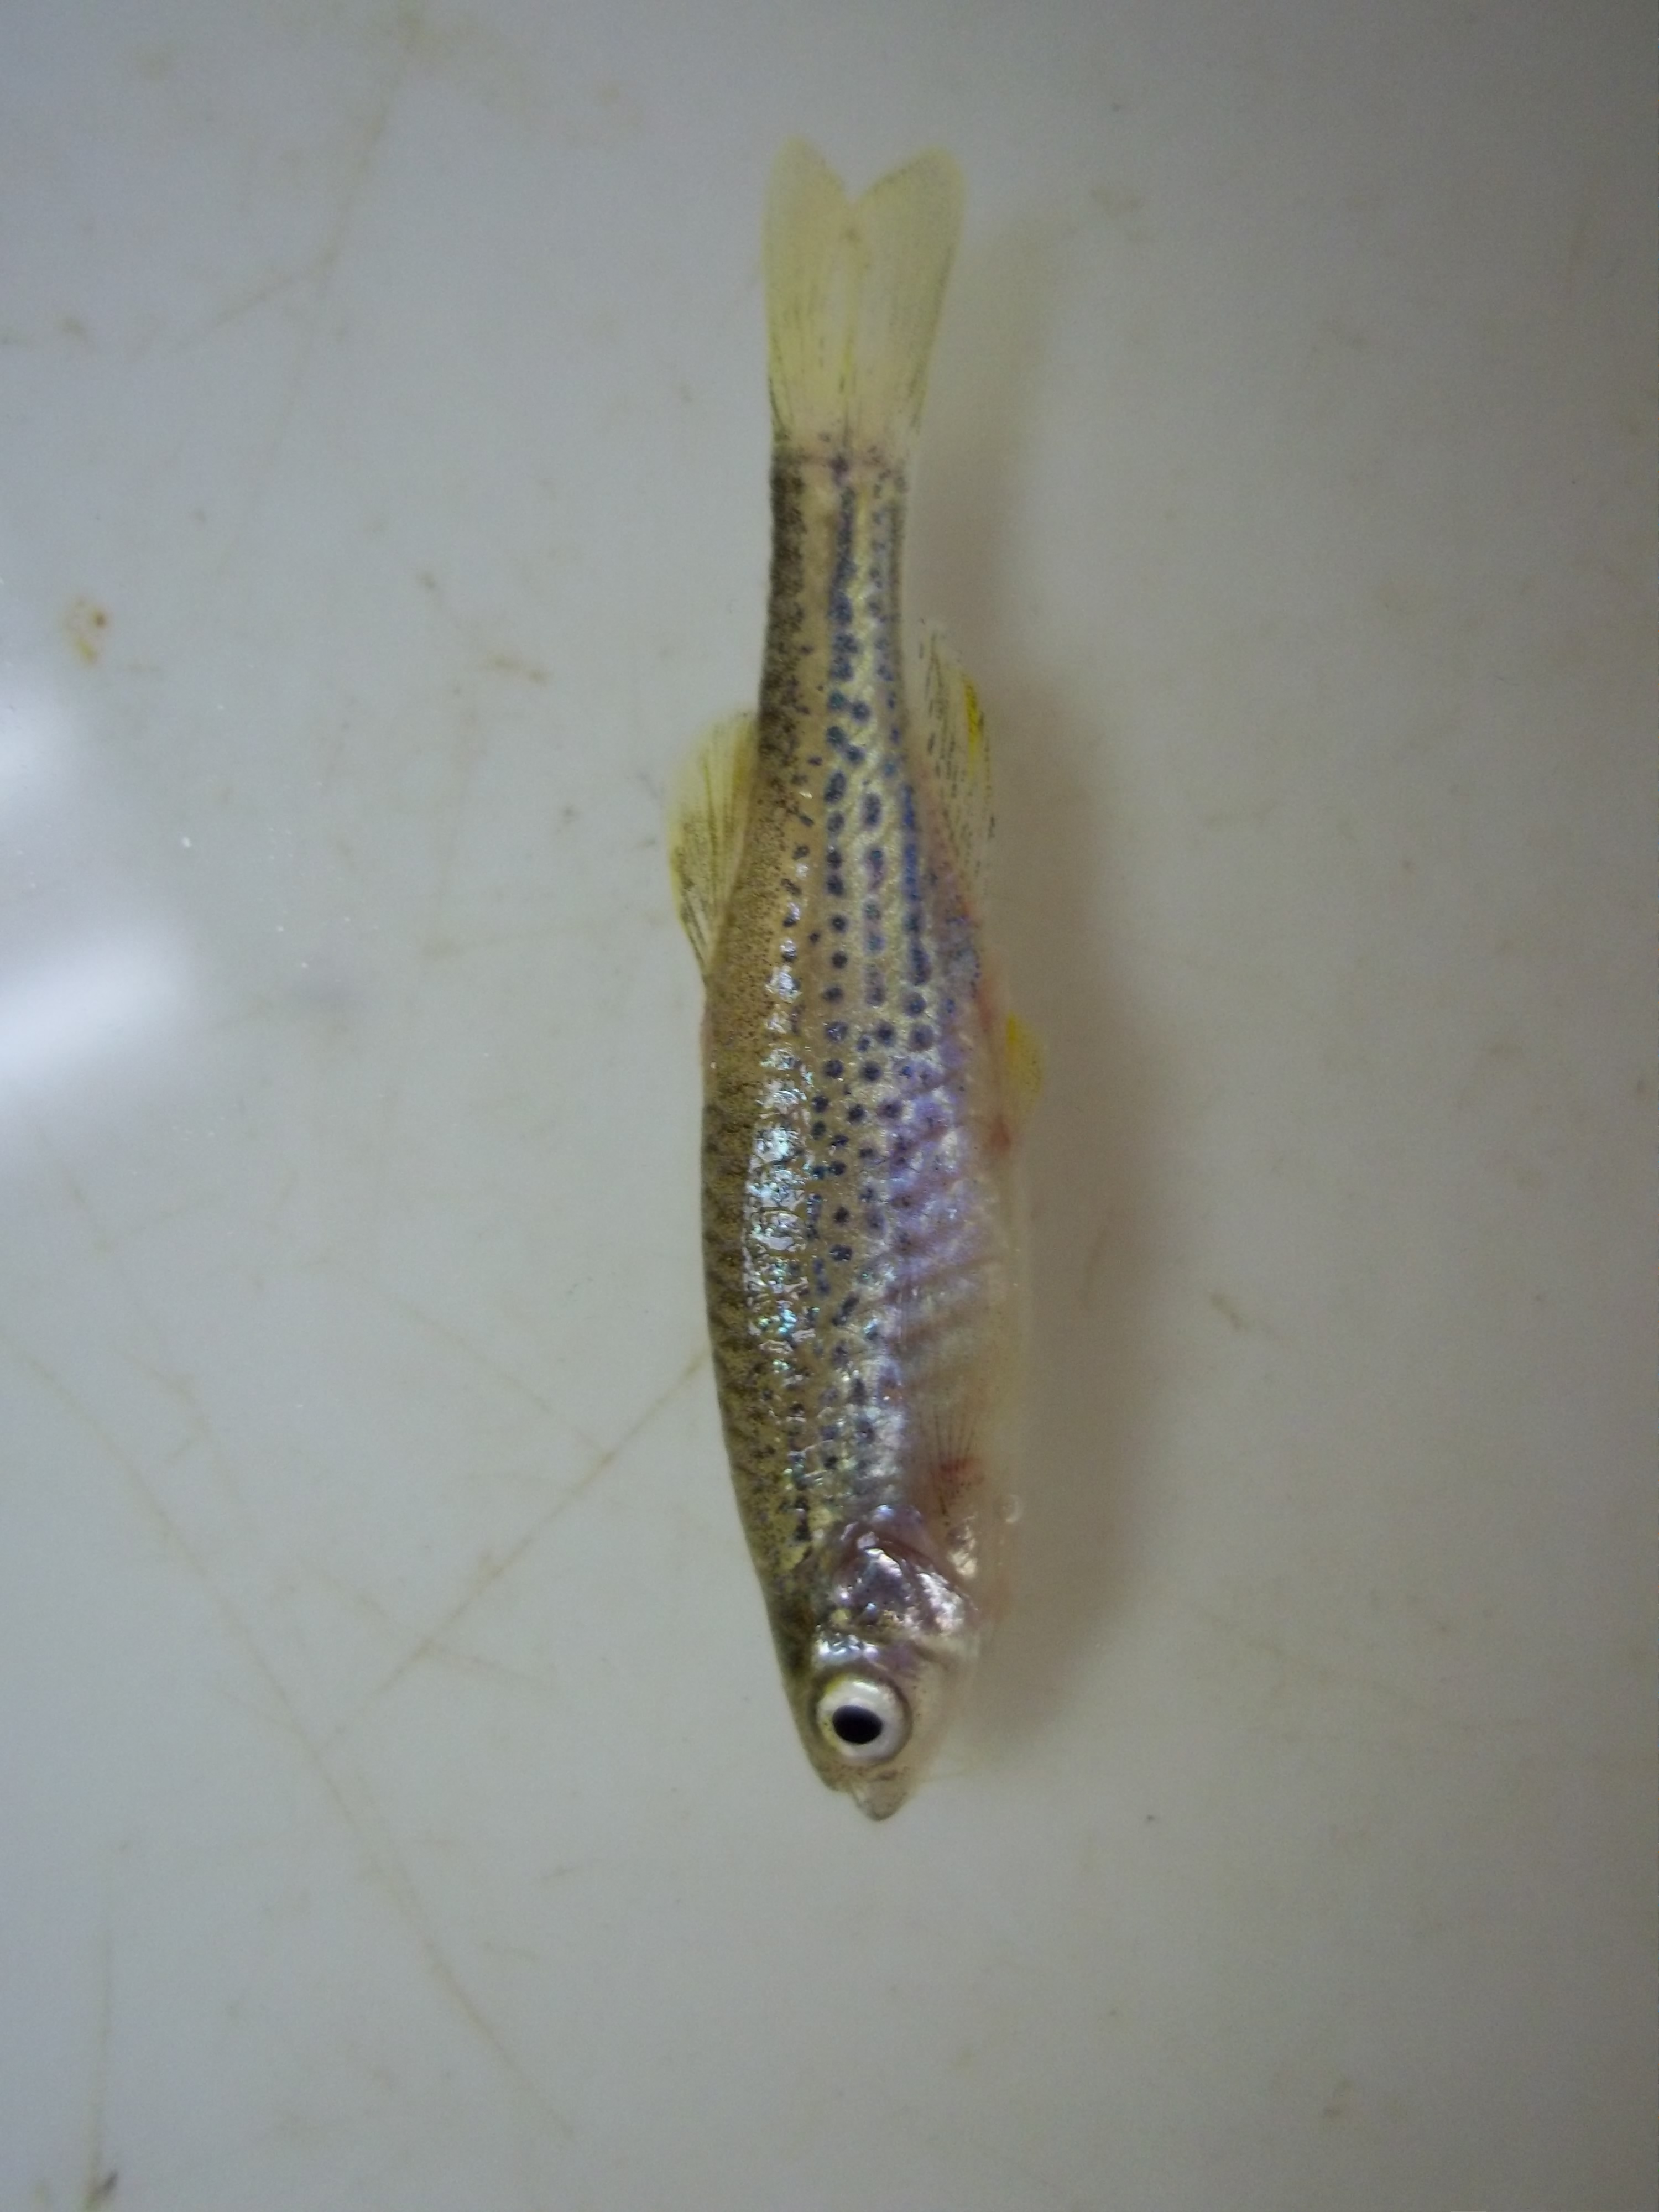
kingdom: Animalia
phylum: Chordata
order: Cypriniformes
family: Cyprinidae
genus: Danio
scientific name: Danio rerio
